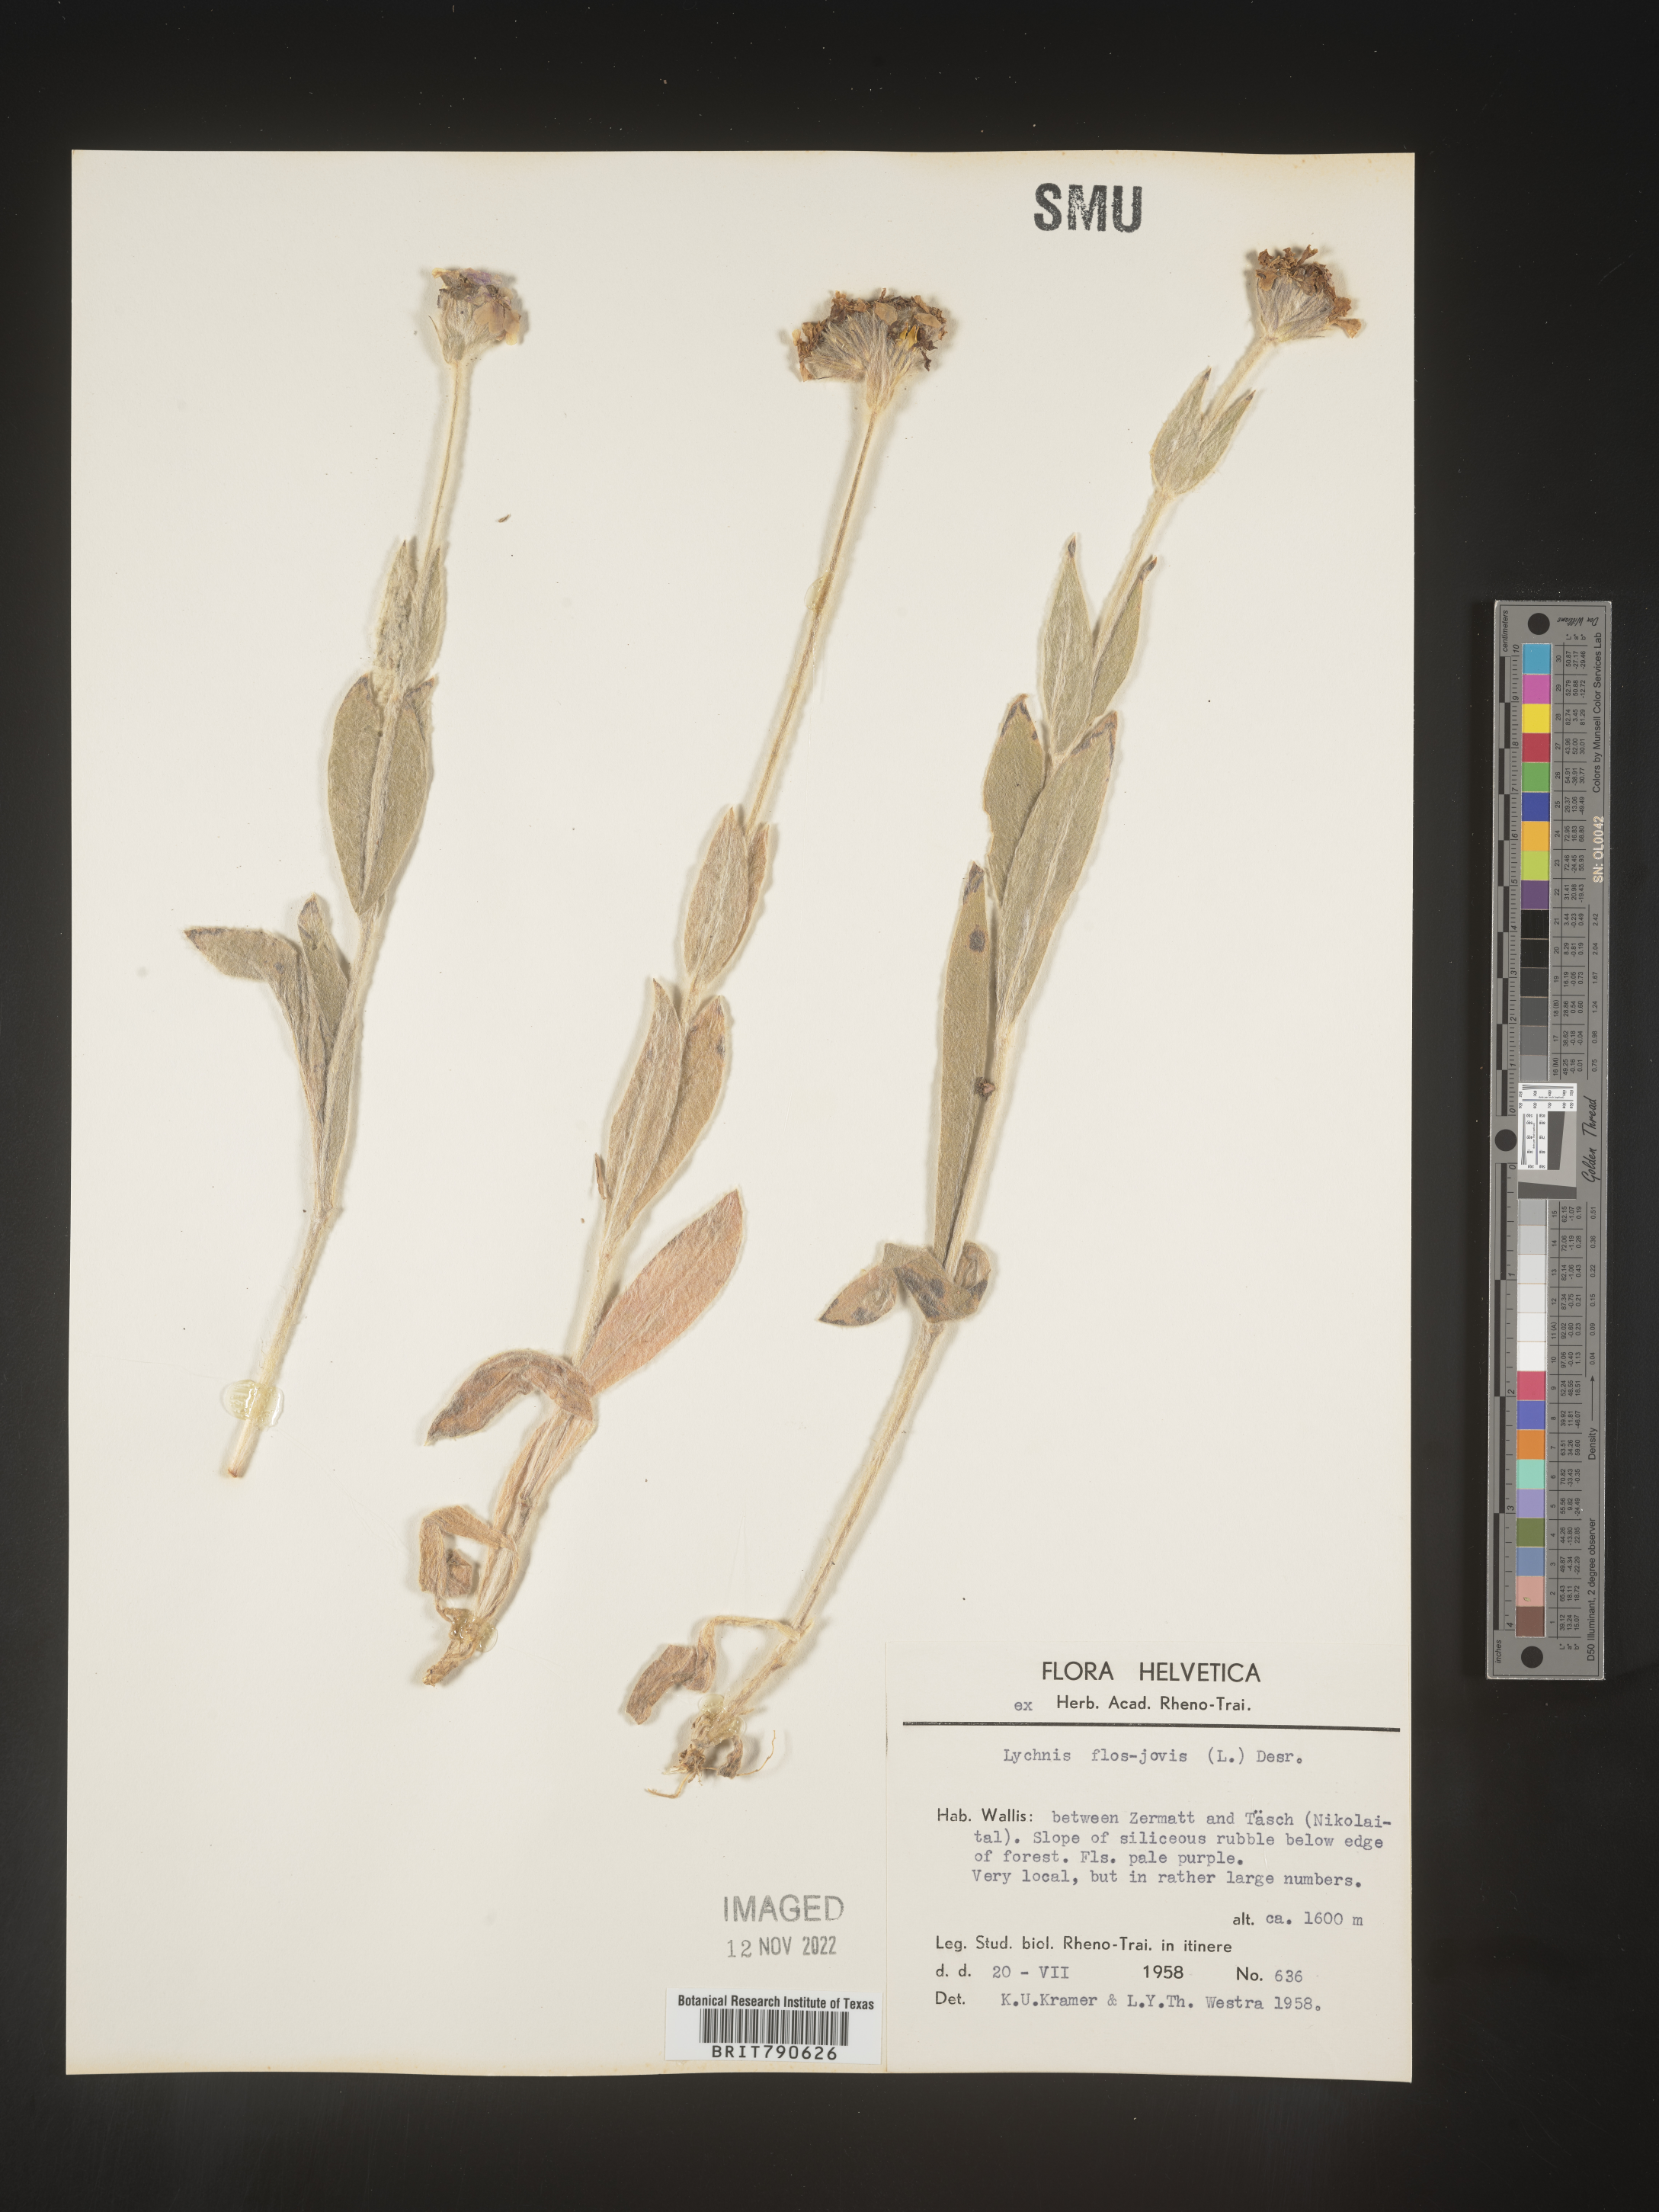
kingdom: Plantae
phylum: Tracheophyta
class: Magnoliopsida
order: Caryophyllales
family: Caryophyllaceae
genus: Silene
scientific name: Silene
